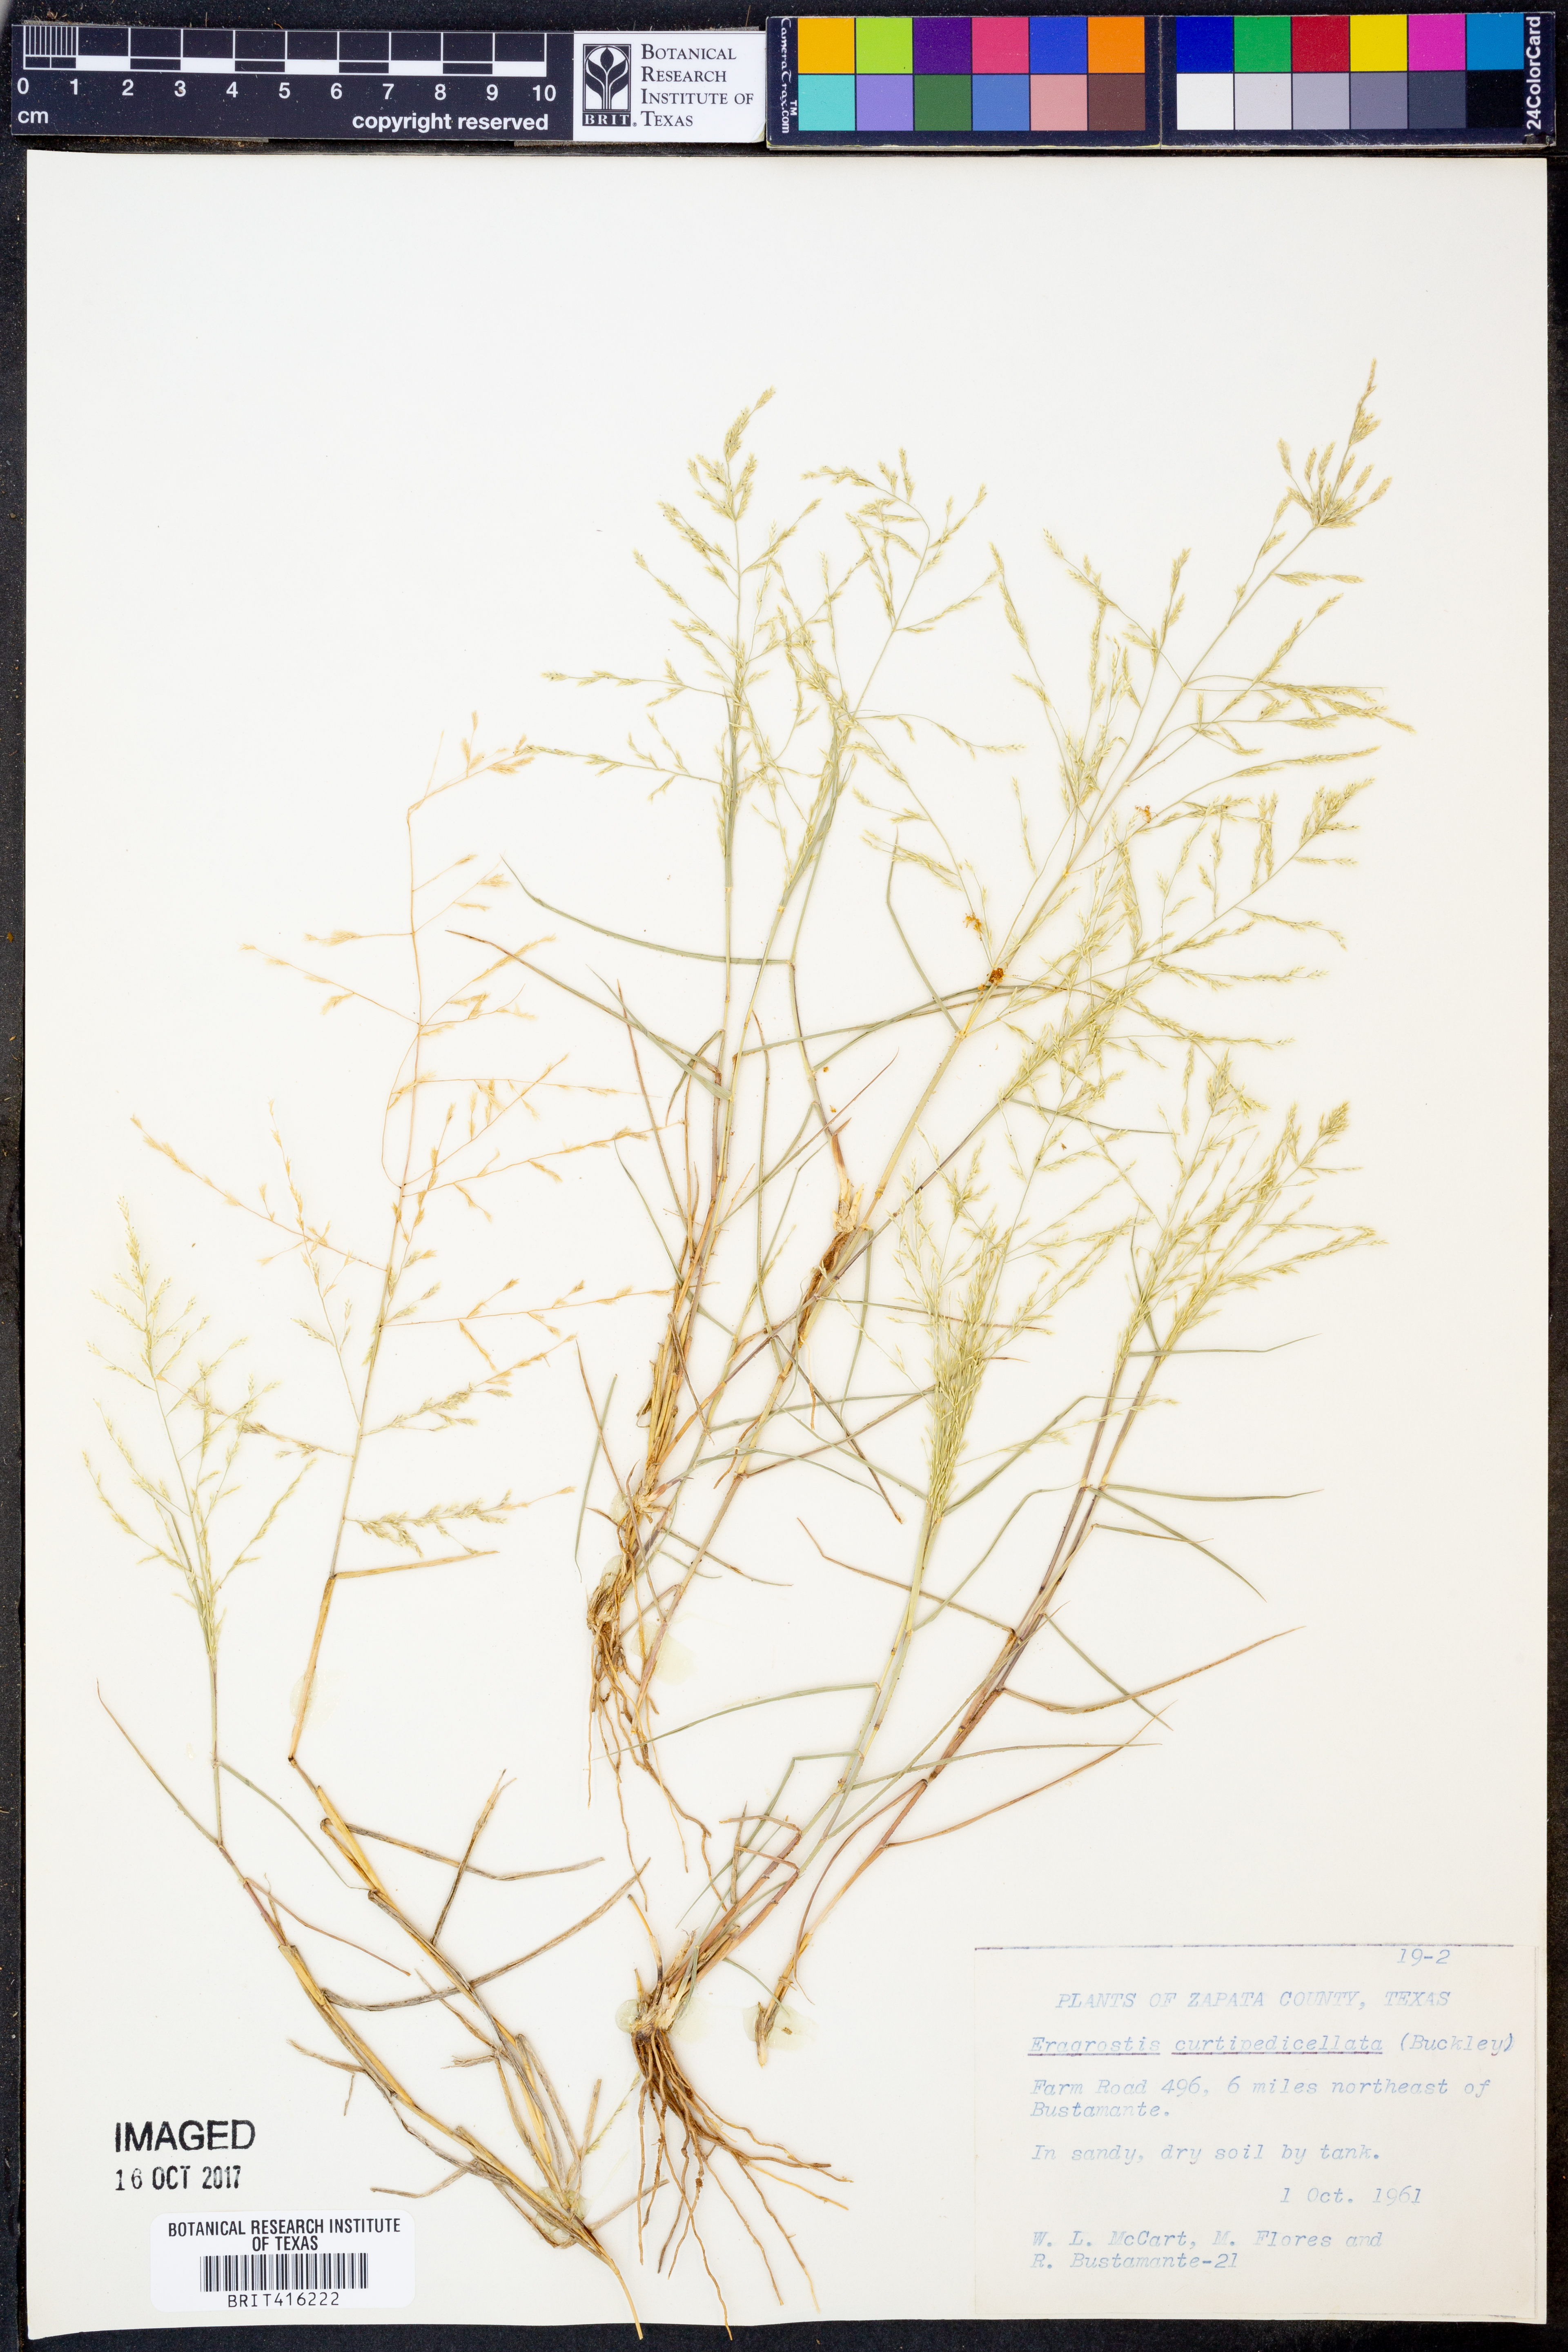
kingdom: Plantae
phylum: Tracheophyta
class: Liliopsida
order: Poales
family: Poaceae
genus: Eragrostis
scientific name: Eragrostis curtipedicellata
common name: Gummy love grass
